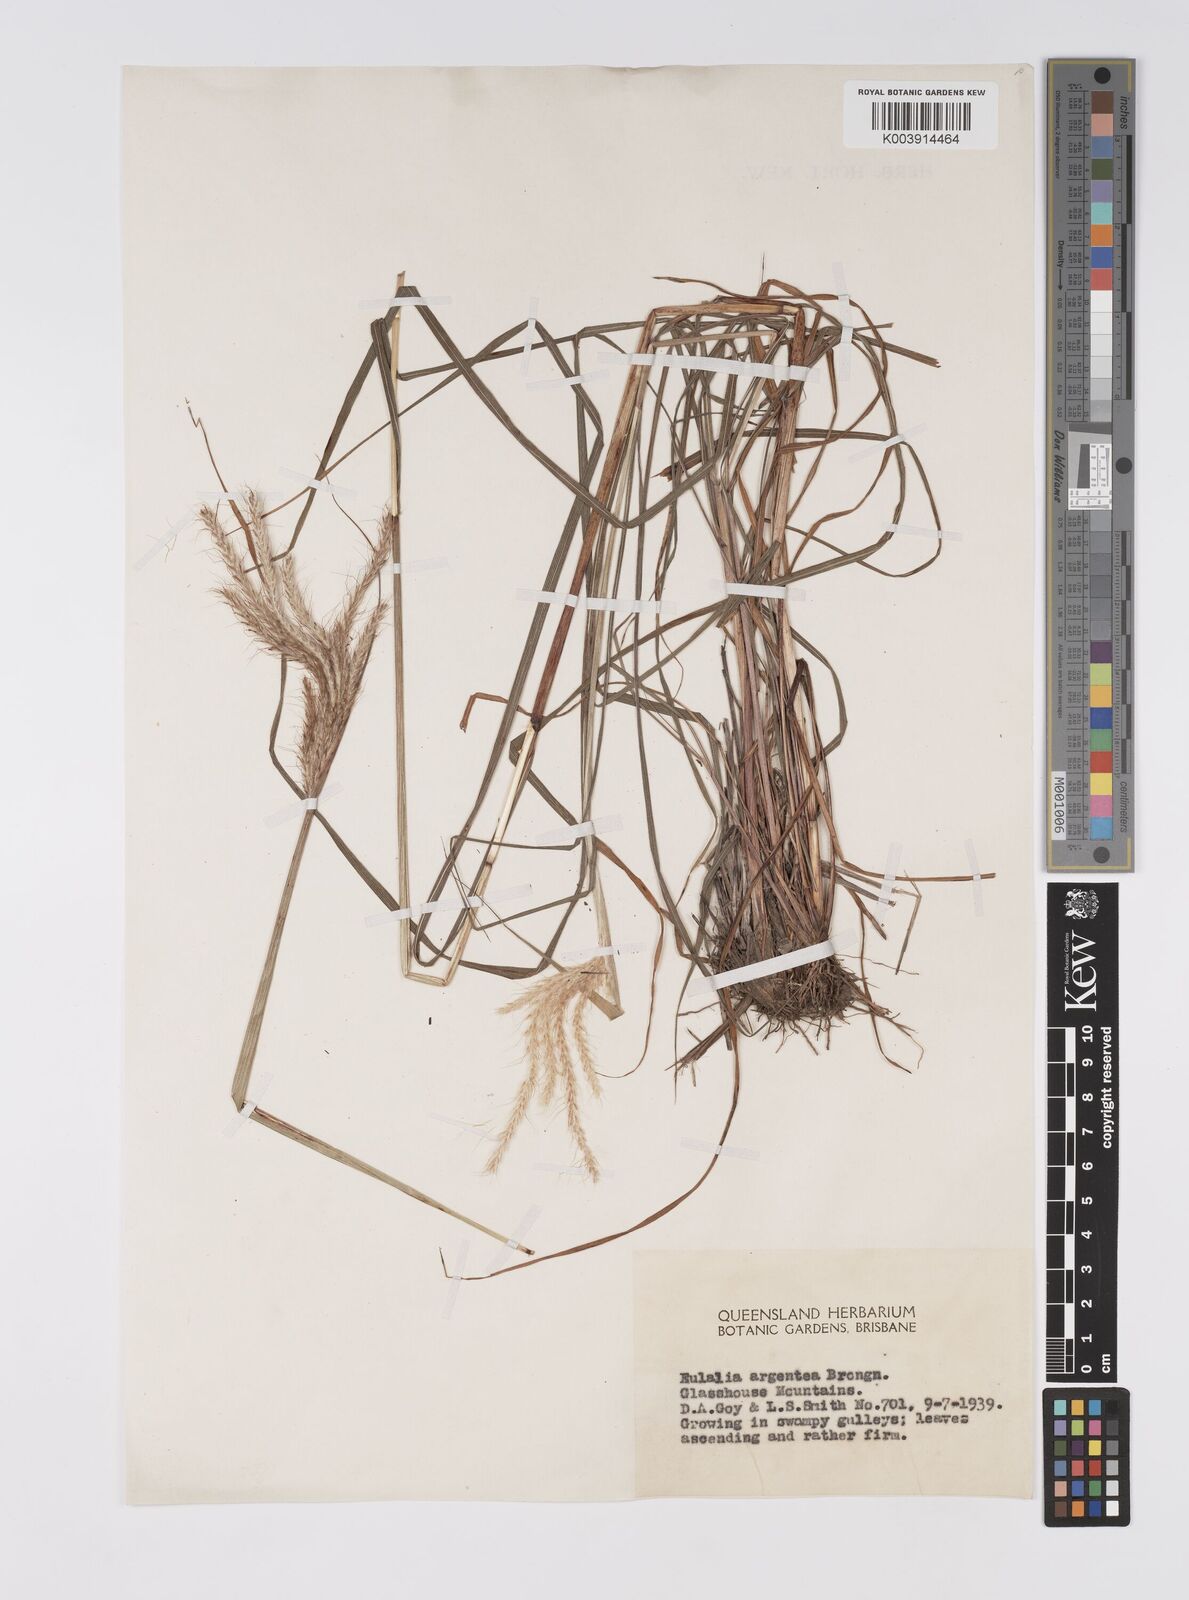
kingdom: Plantae
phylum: Tracheophyta
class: Liliopsida
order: Poales
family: Poaceae
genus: Pseudopogonatherum
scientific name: Pseudopogonatherum trispicatum
